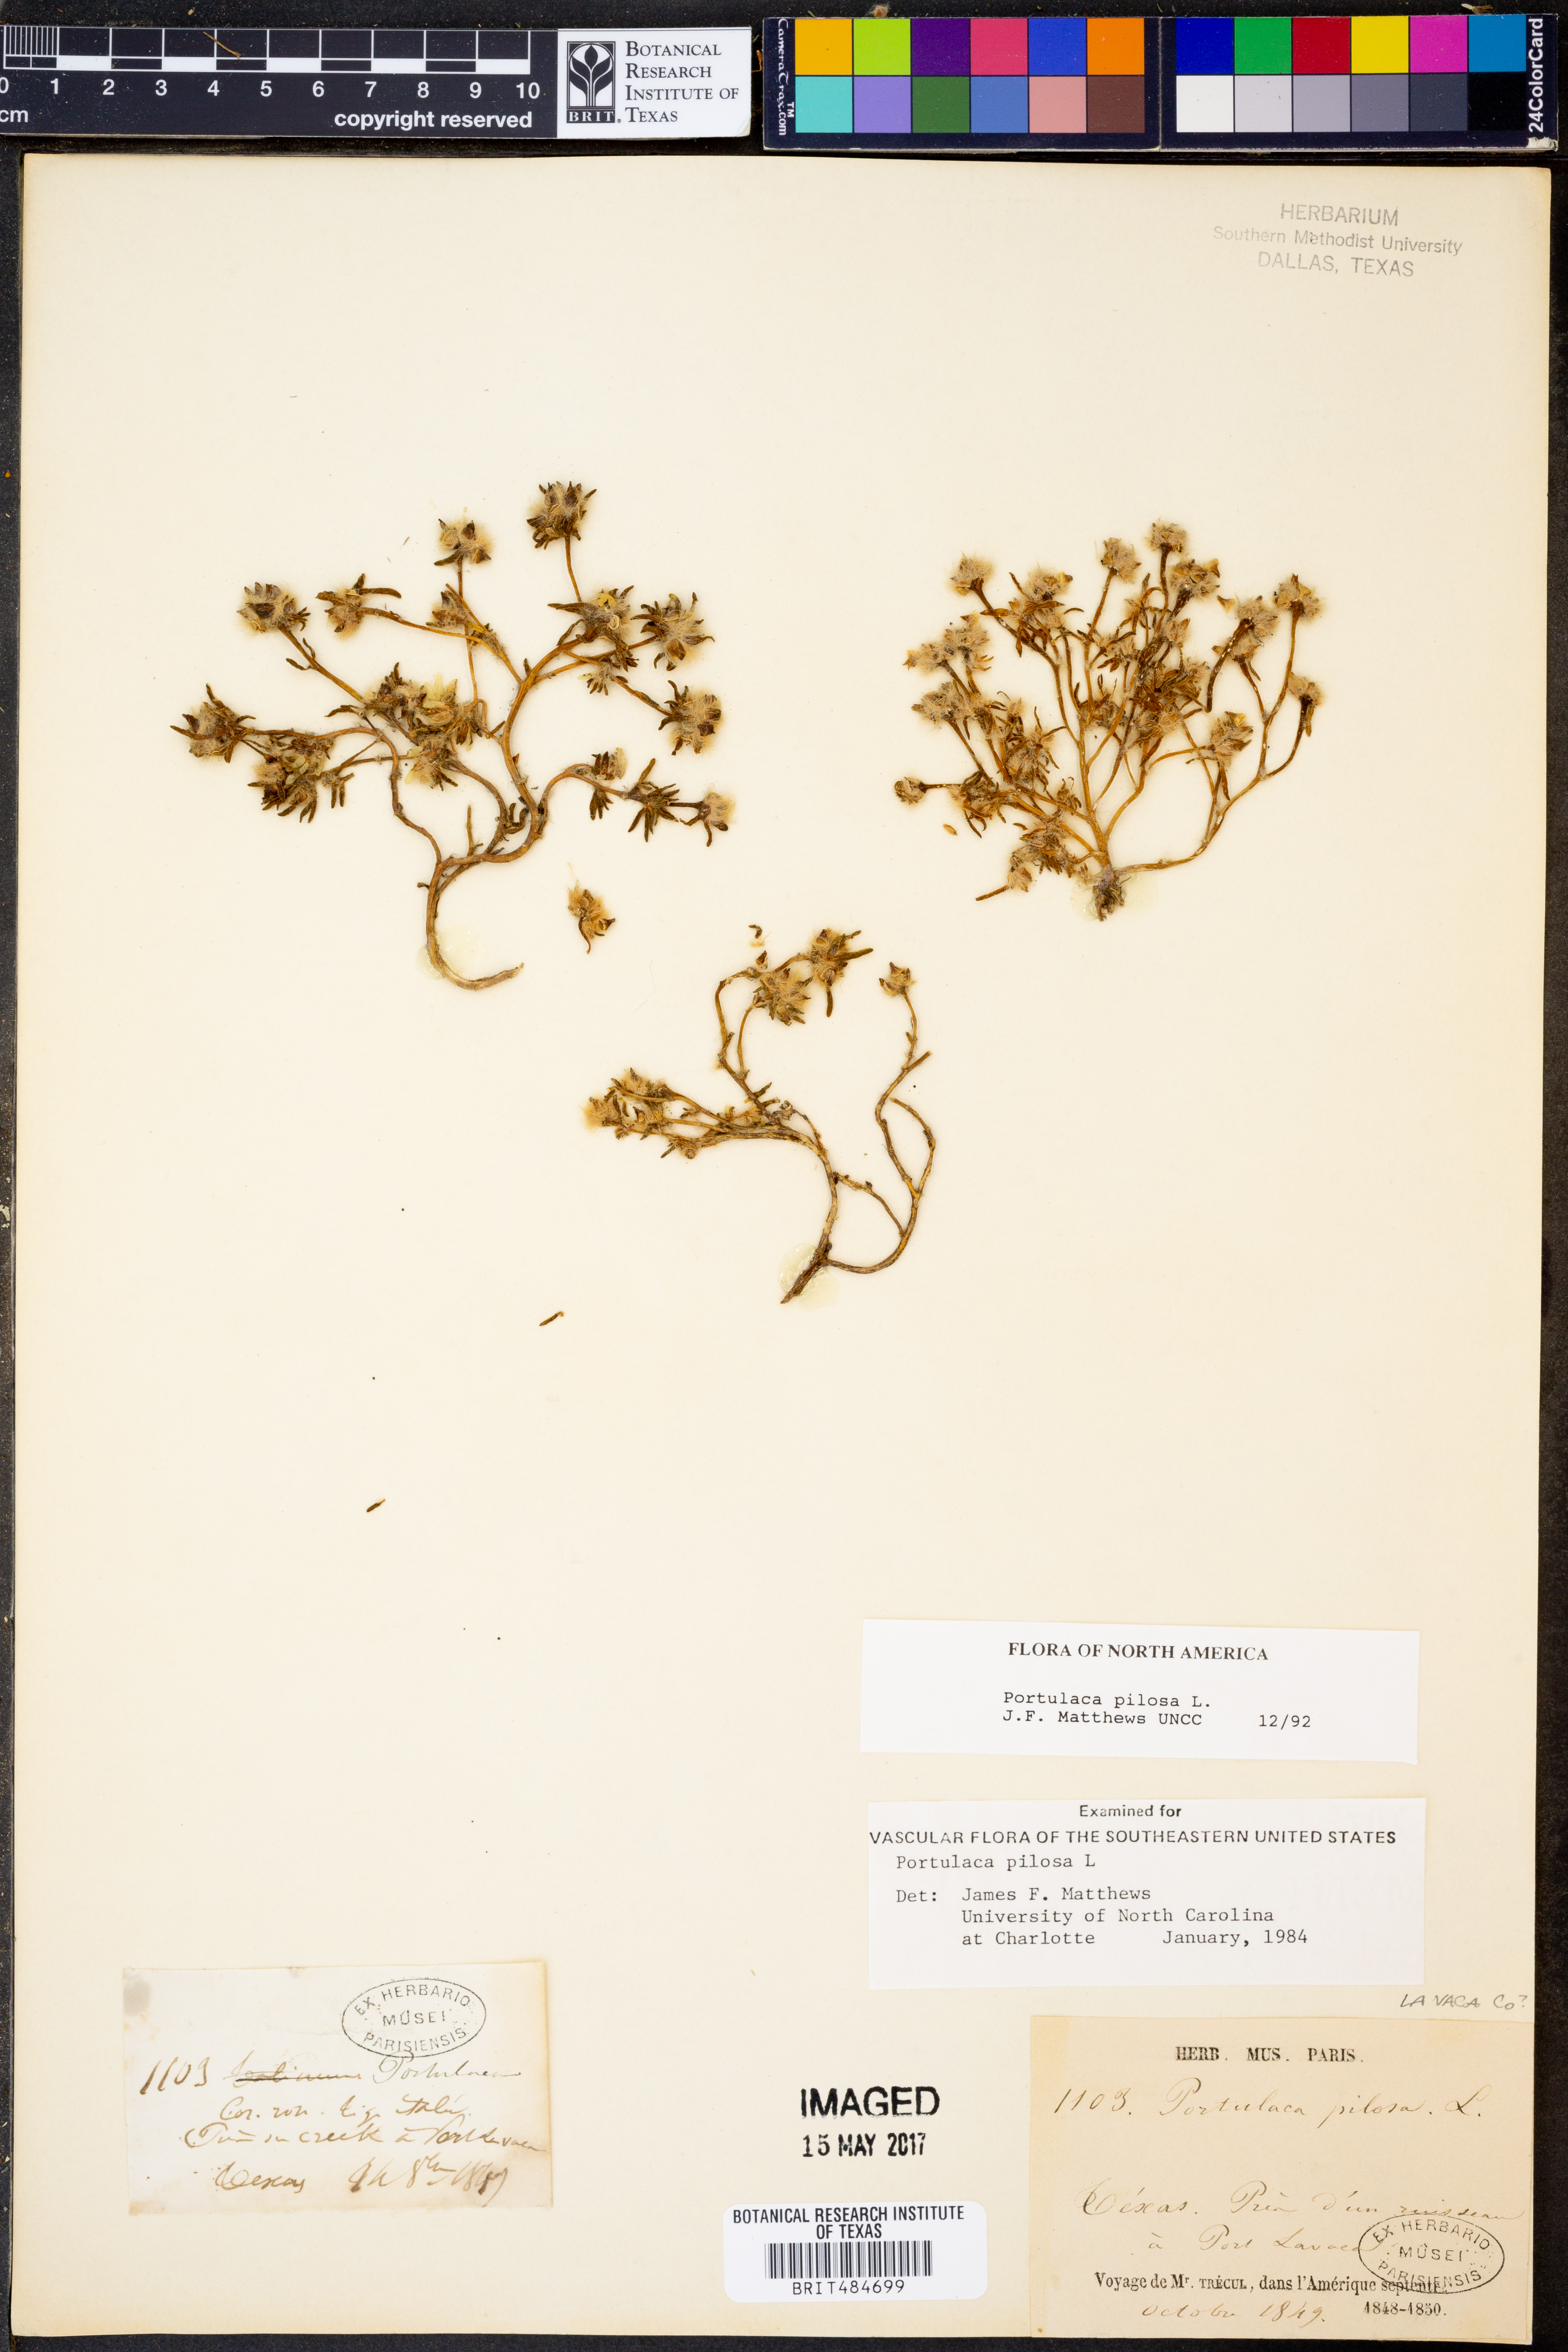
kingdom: Plantae
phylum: Tracheophyta
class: Magnoliopsida
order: Caryophyllales
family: Portulacaceae
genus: Portulaca
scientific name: Portulaca pilosa
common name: Kiss me quick
